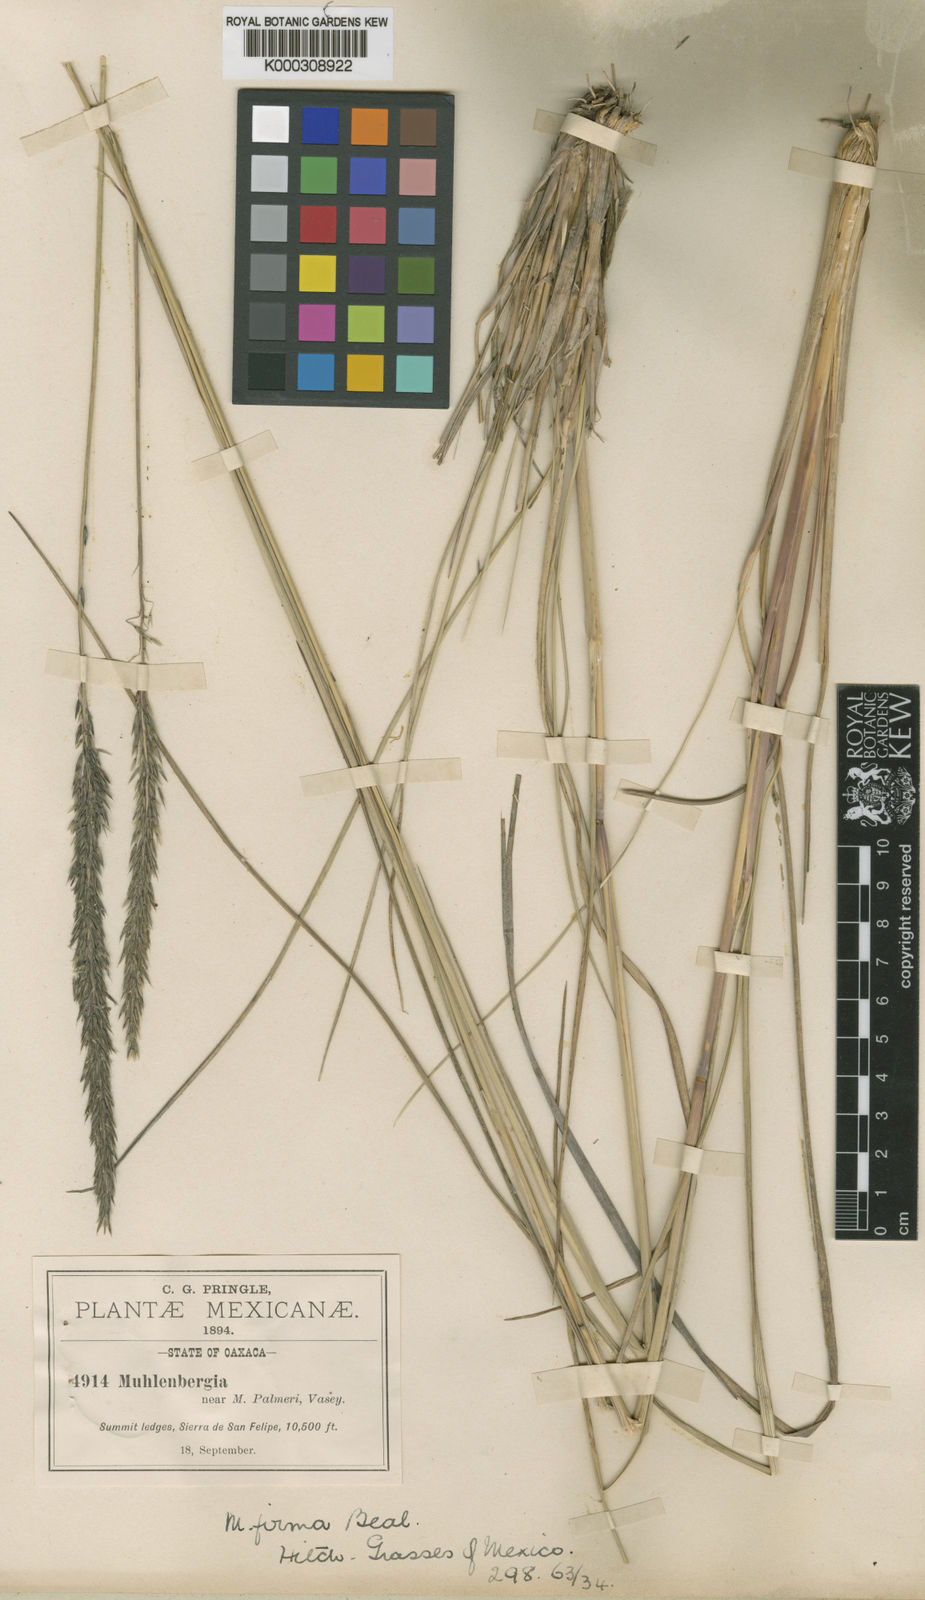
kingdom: Plantae
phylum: Tracheophyta
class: Liliopsida
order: Poales
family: Poaceae
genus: Muhlenbergia
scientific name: Muhlenbergia dubia
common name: Pine muhly
